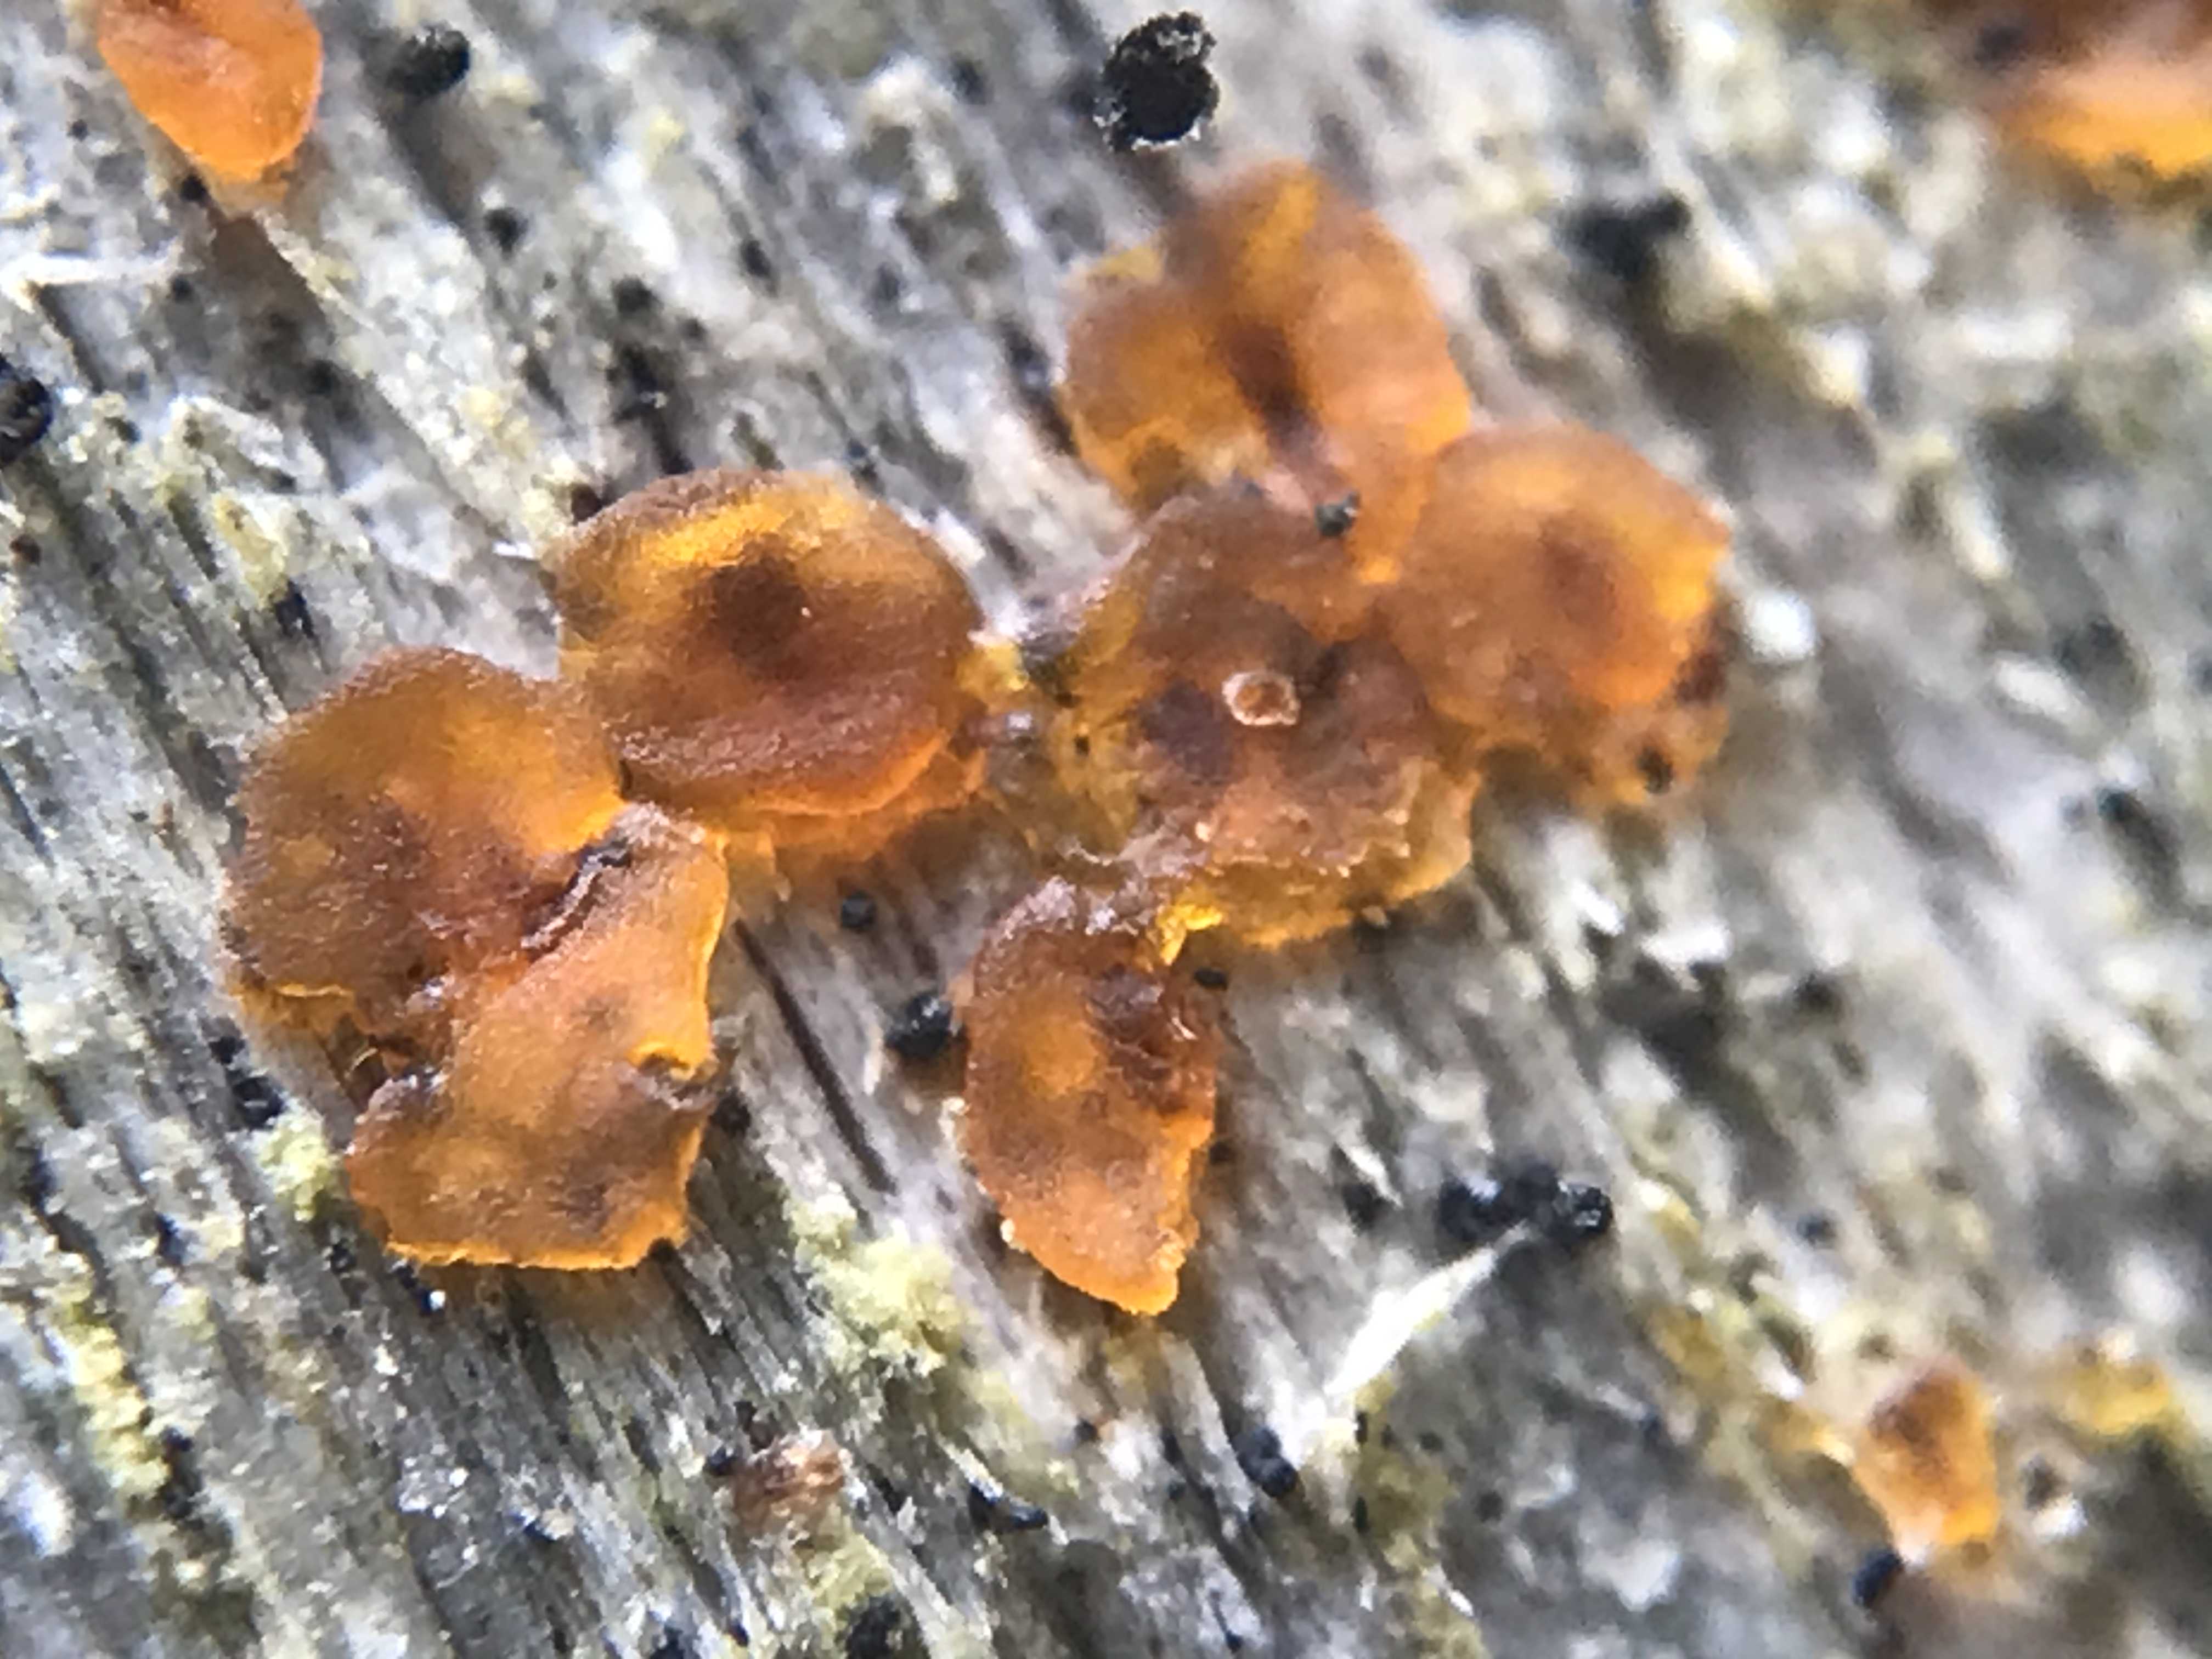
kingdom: Fungi
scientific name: Fungi
